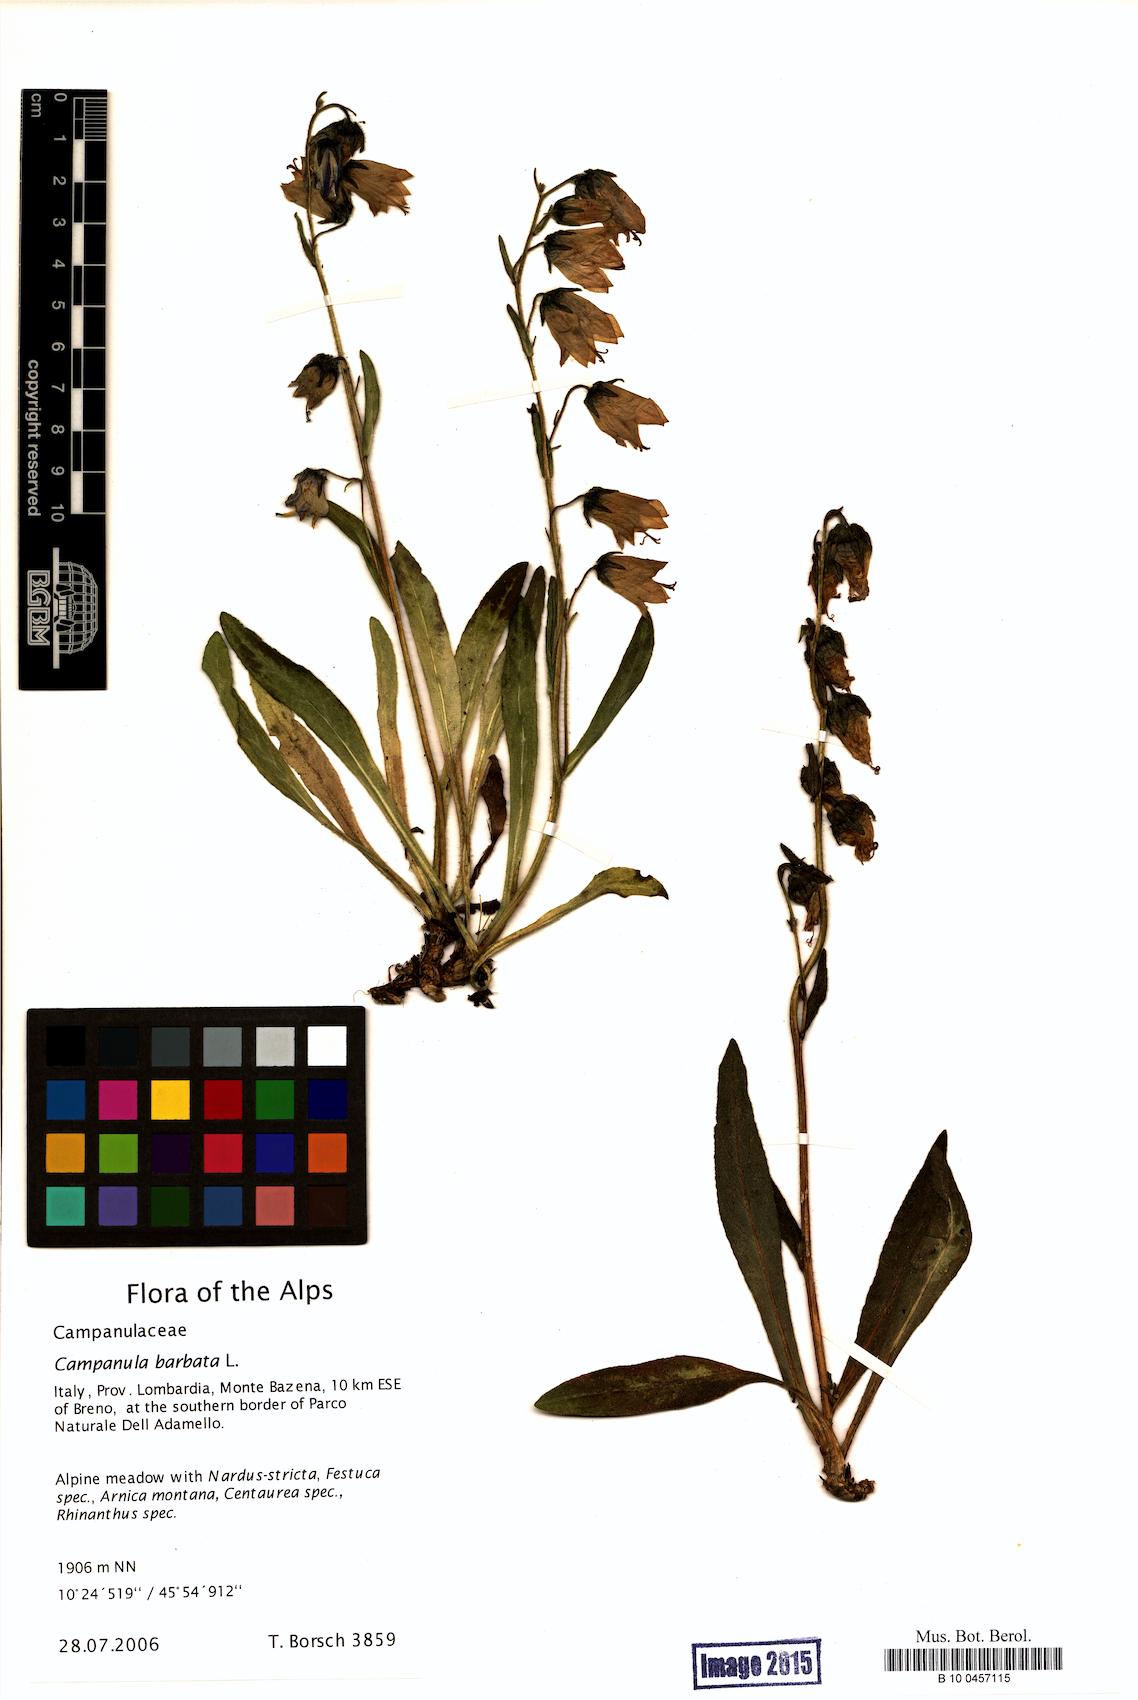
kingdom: Plantae
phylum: Tracheophyta
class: Magnoliopsida
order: Asterales
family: Campanulaceae
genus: Campanula
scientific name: Campanula barbata
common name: Bearded bellflower
